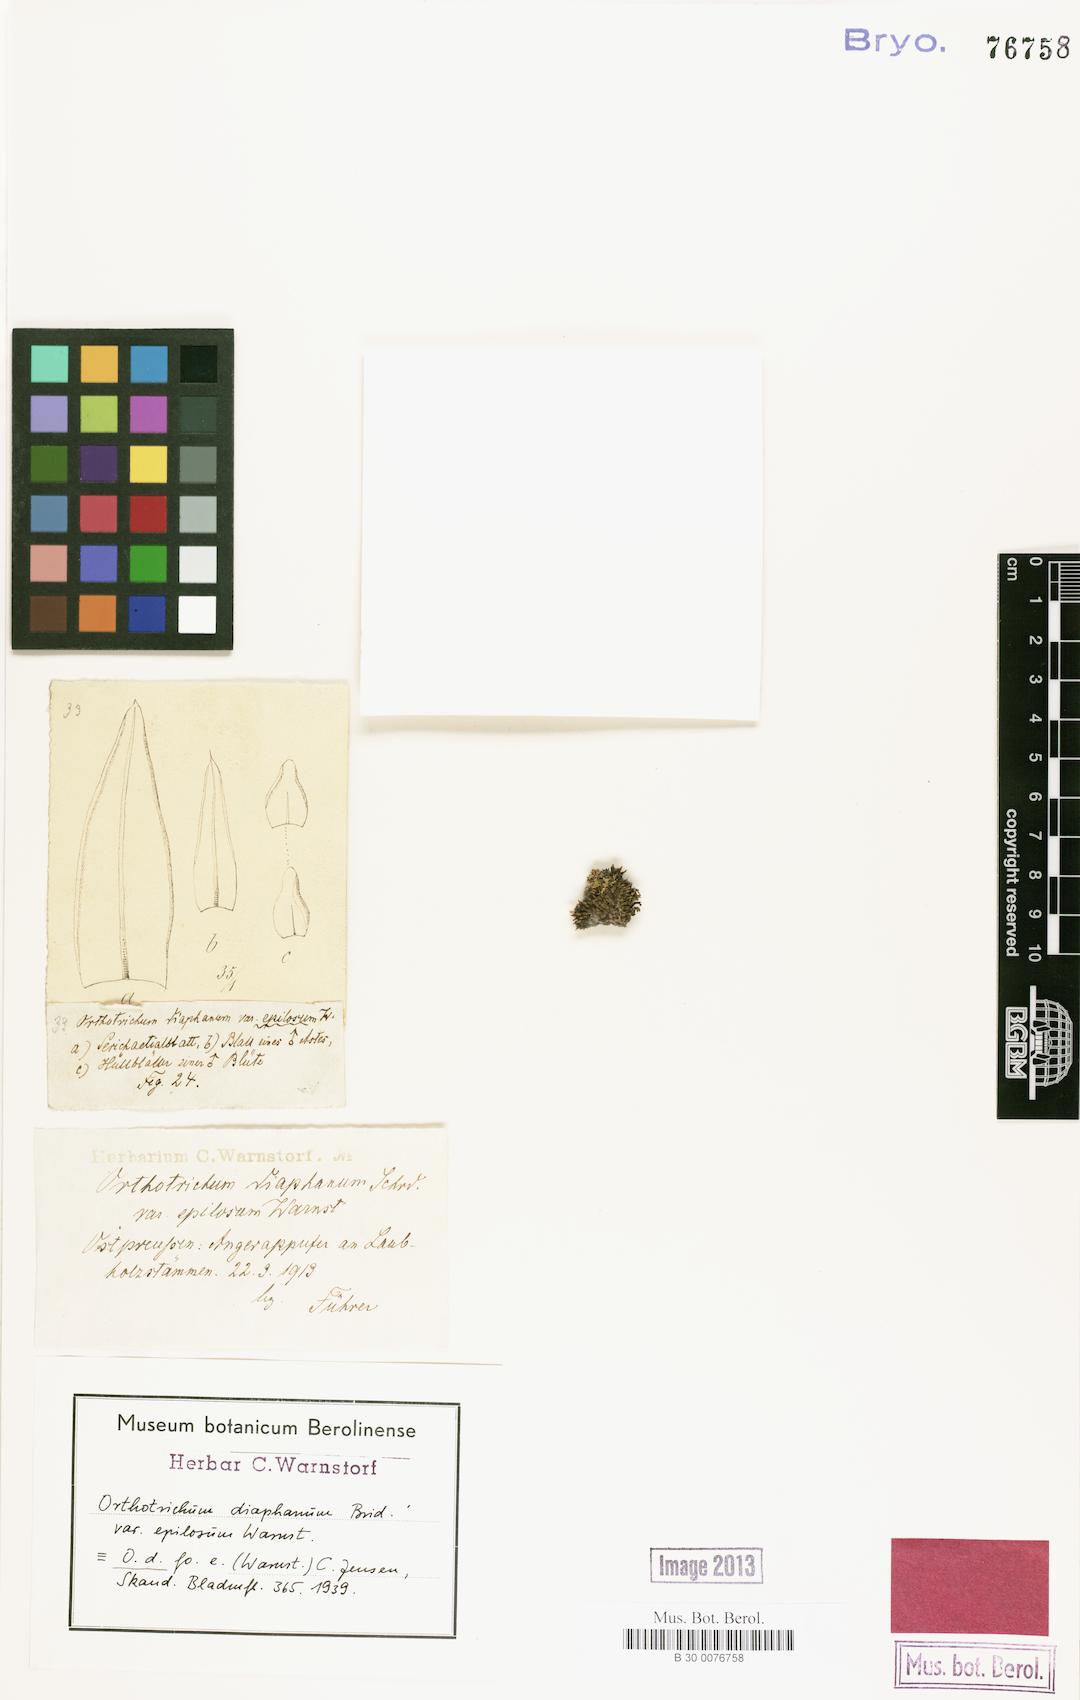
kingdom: Plantae
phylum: Bryophyta
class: Bryopsida
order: Orthotrichales
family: Orthotrichaceae
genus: Orthotrichum
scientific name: Orthotrichum diaphanum
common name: White-tipped bristle-moss
